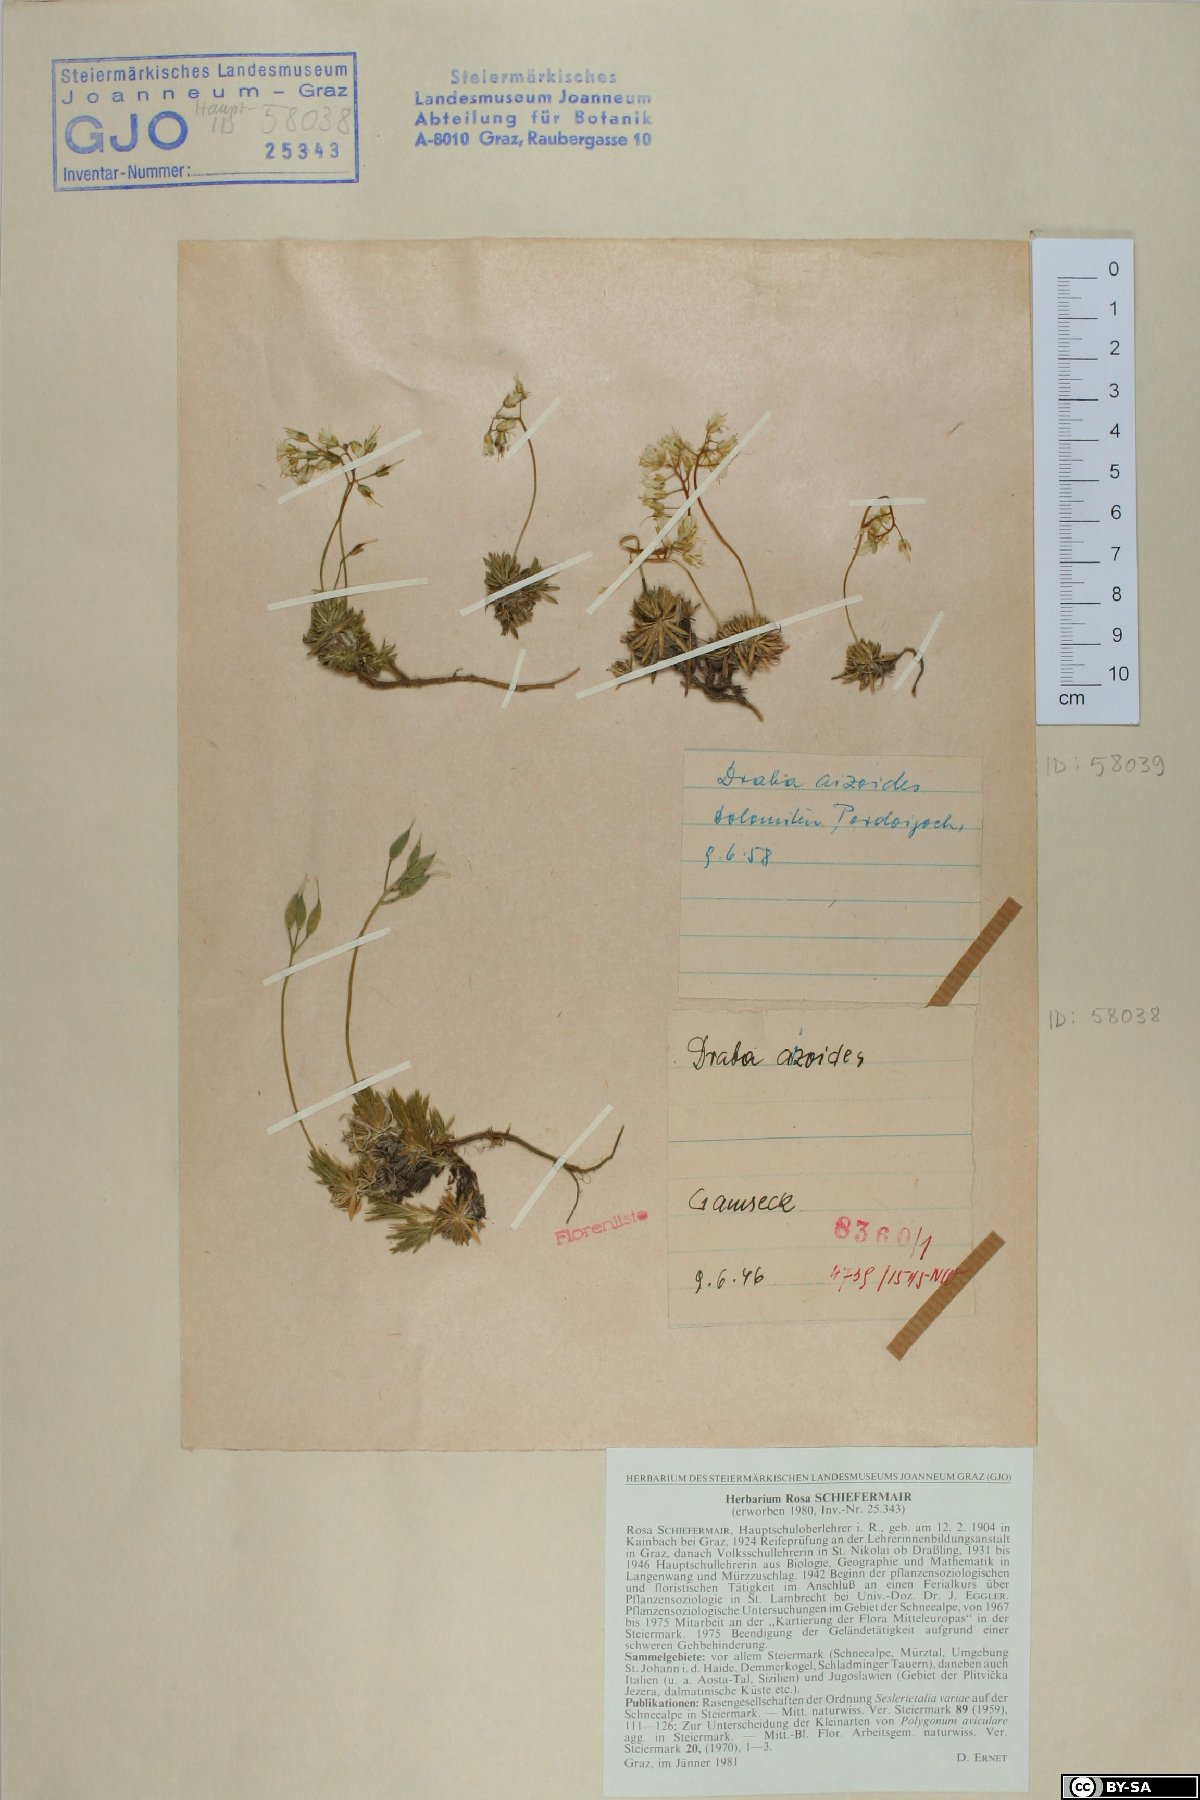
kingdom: Plantae
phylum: Tracheophyta
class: Magnoliopsida
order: Brassicales
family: Brassicaceae
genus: Draba
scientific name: Draba aizoides
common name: Yellow whitlowgrass
